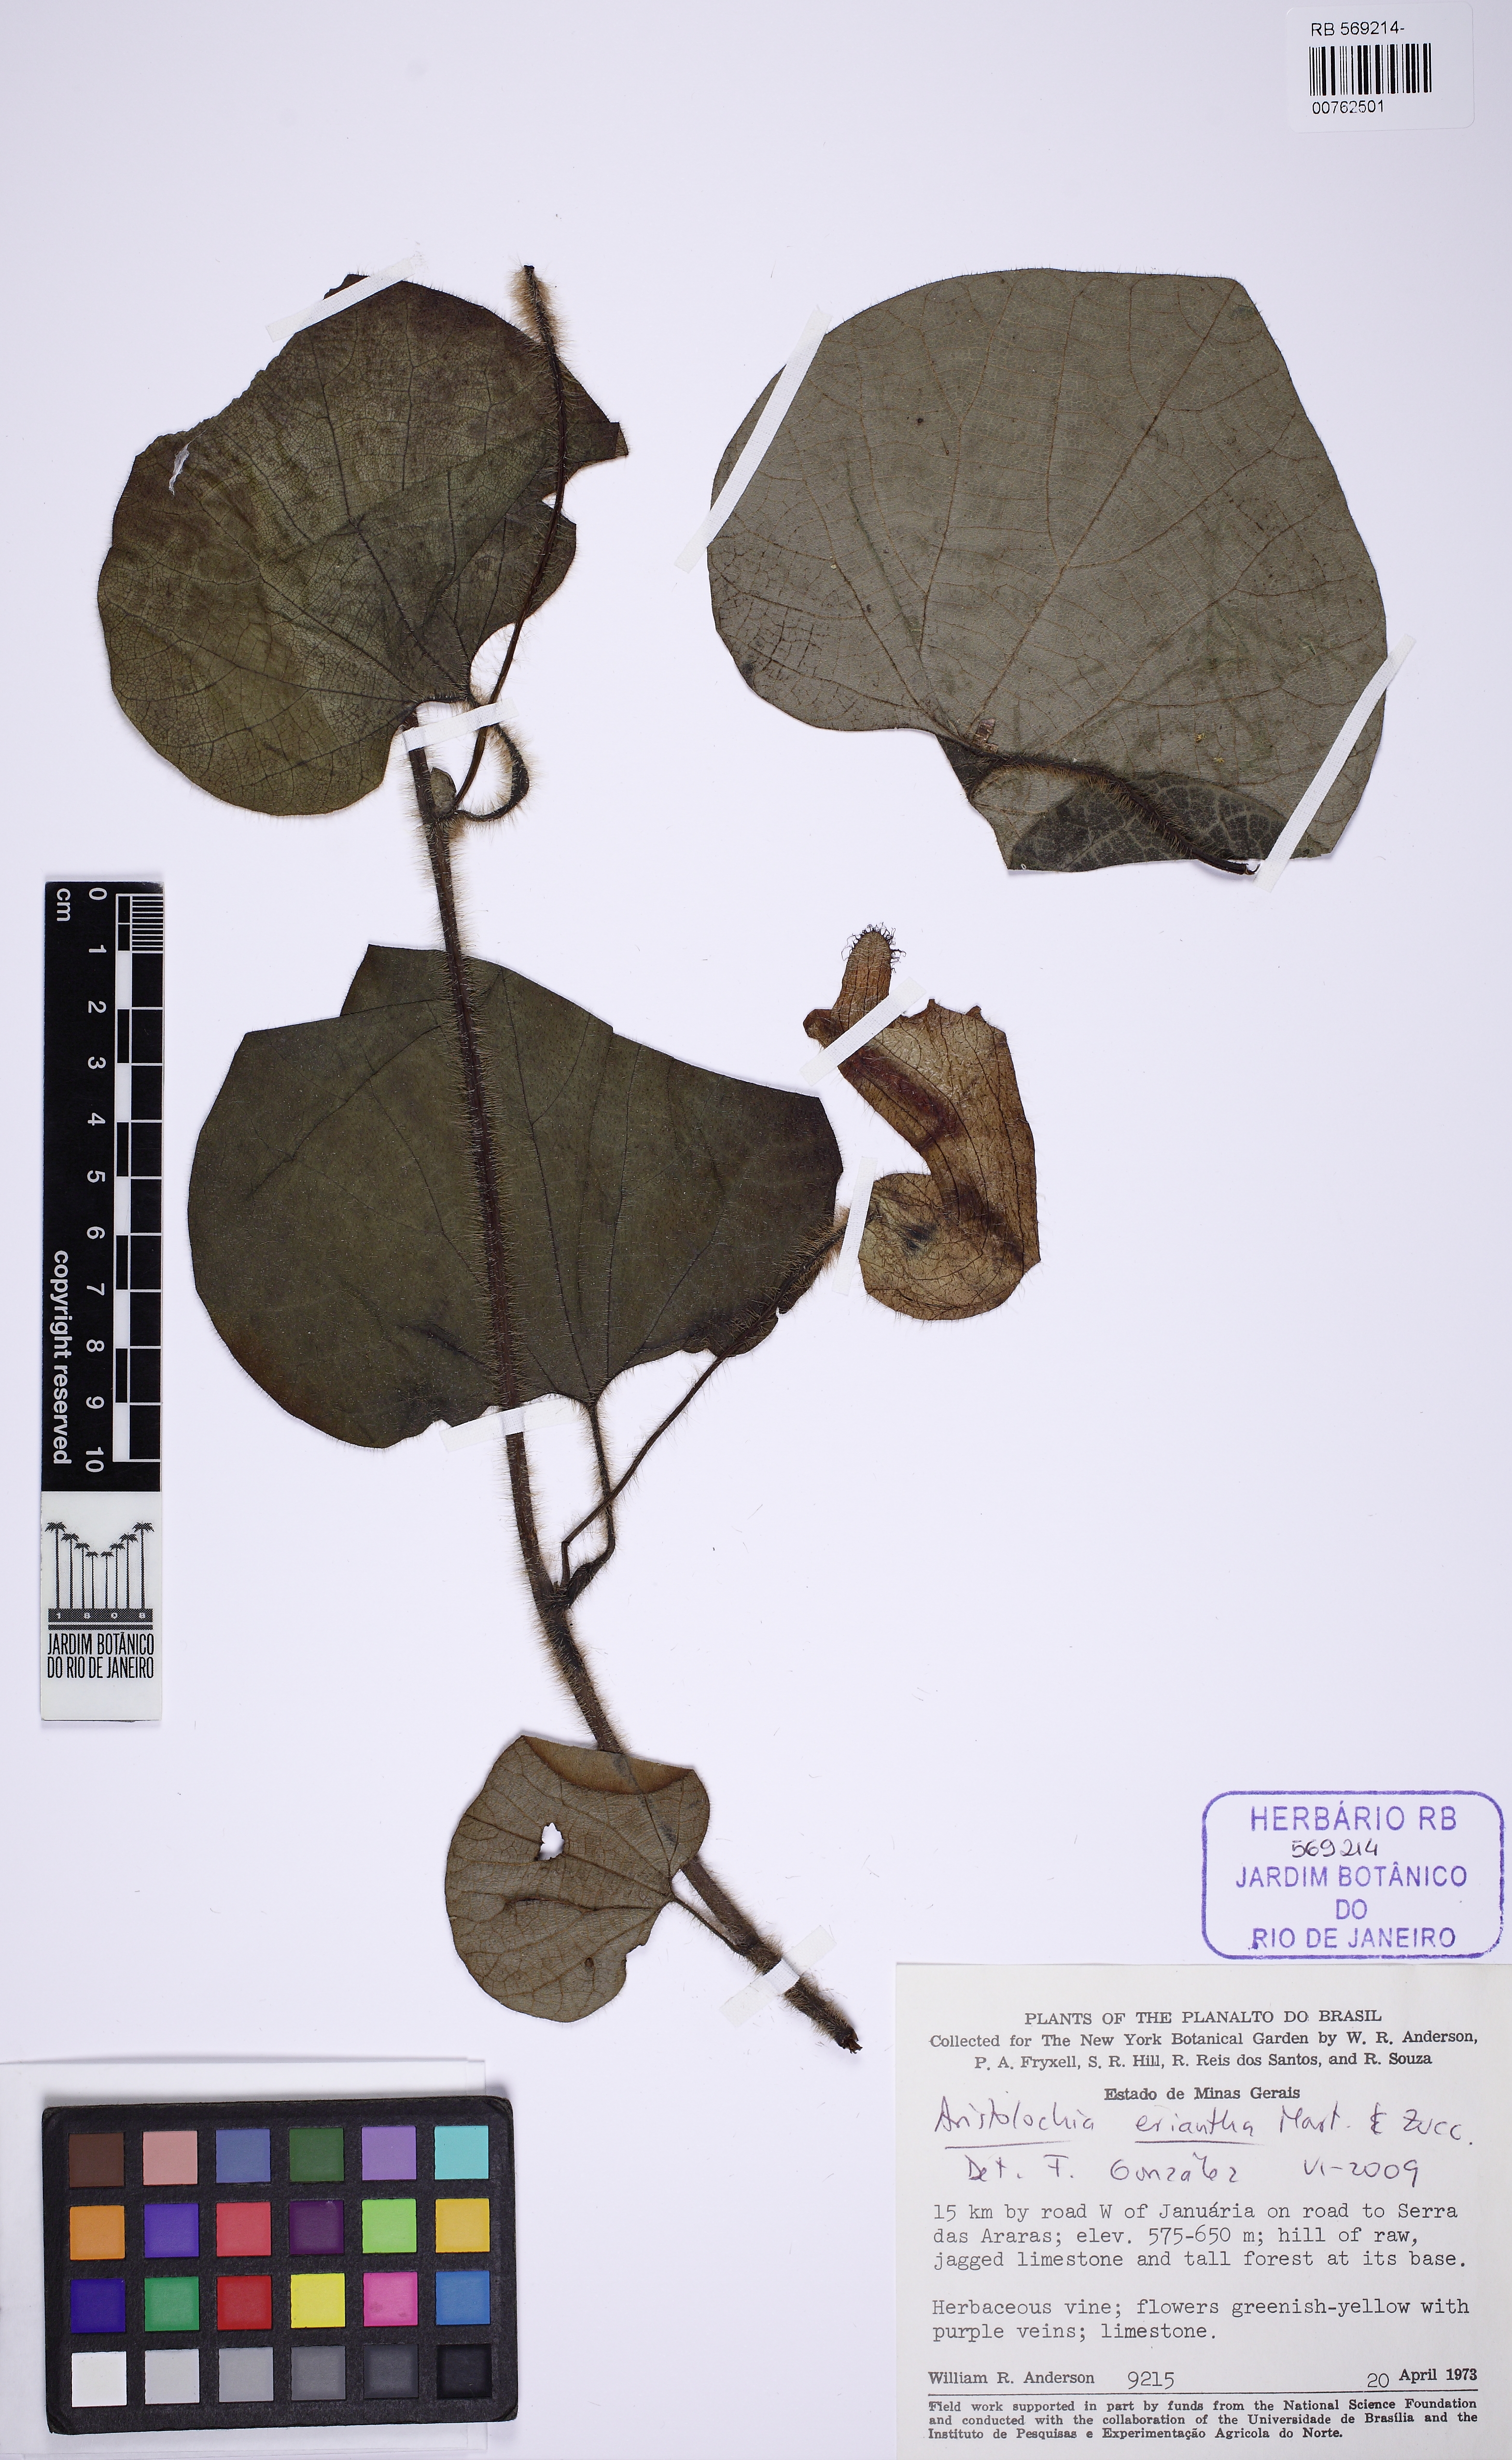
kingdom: Plantae
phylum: Tracheophyta
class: Magnoliopsida
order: Piperales
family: Aristolochiaceae
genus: Aristolochia
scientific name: Aristolochia eriantha
